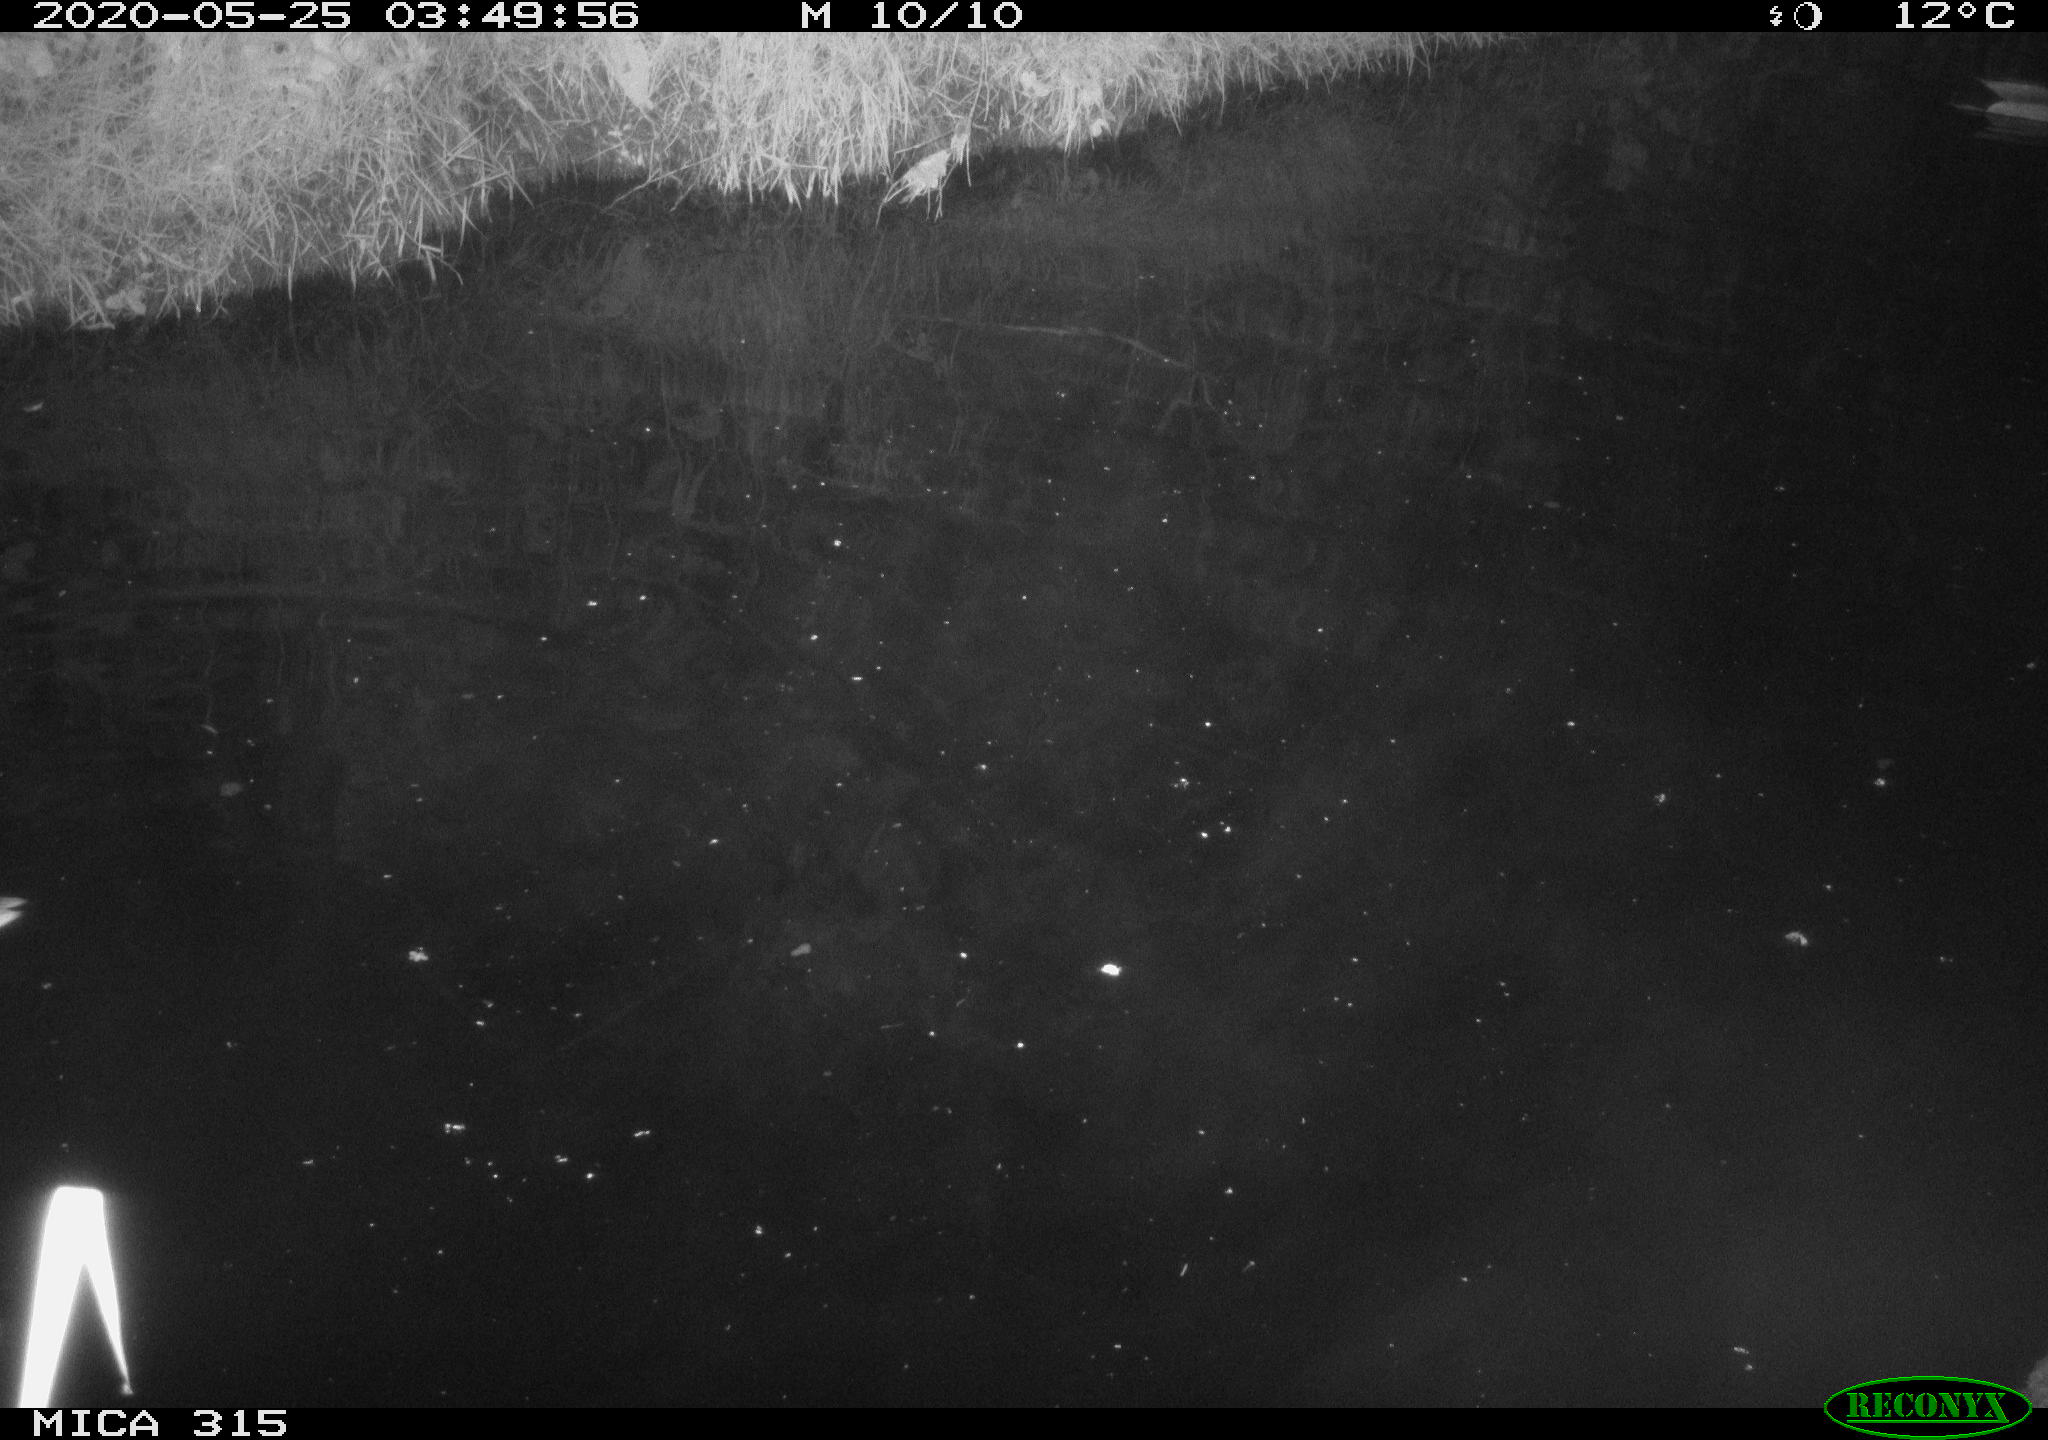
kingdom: Animalia
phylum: Chordata
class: Aves
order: Anseriformes
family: Anatidae
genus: Anas
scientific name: Anas platyrhynchos
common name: Mallard
